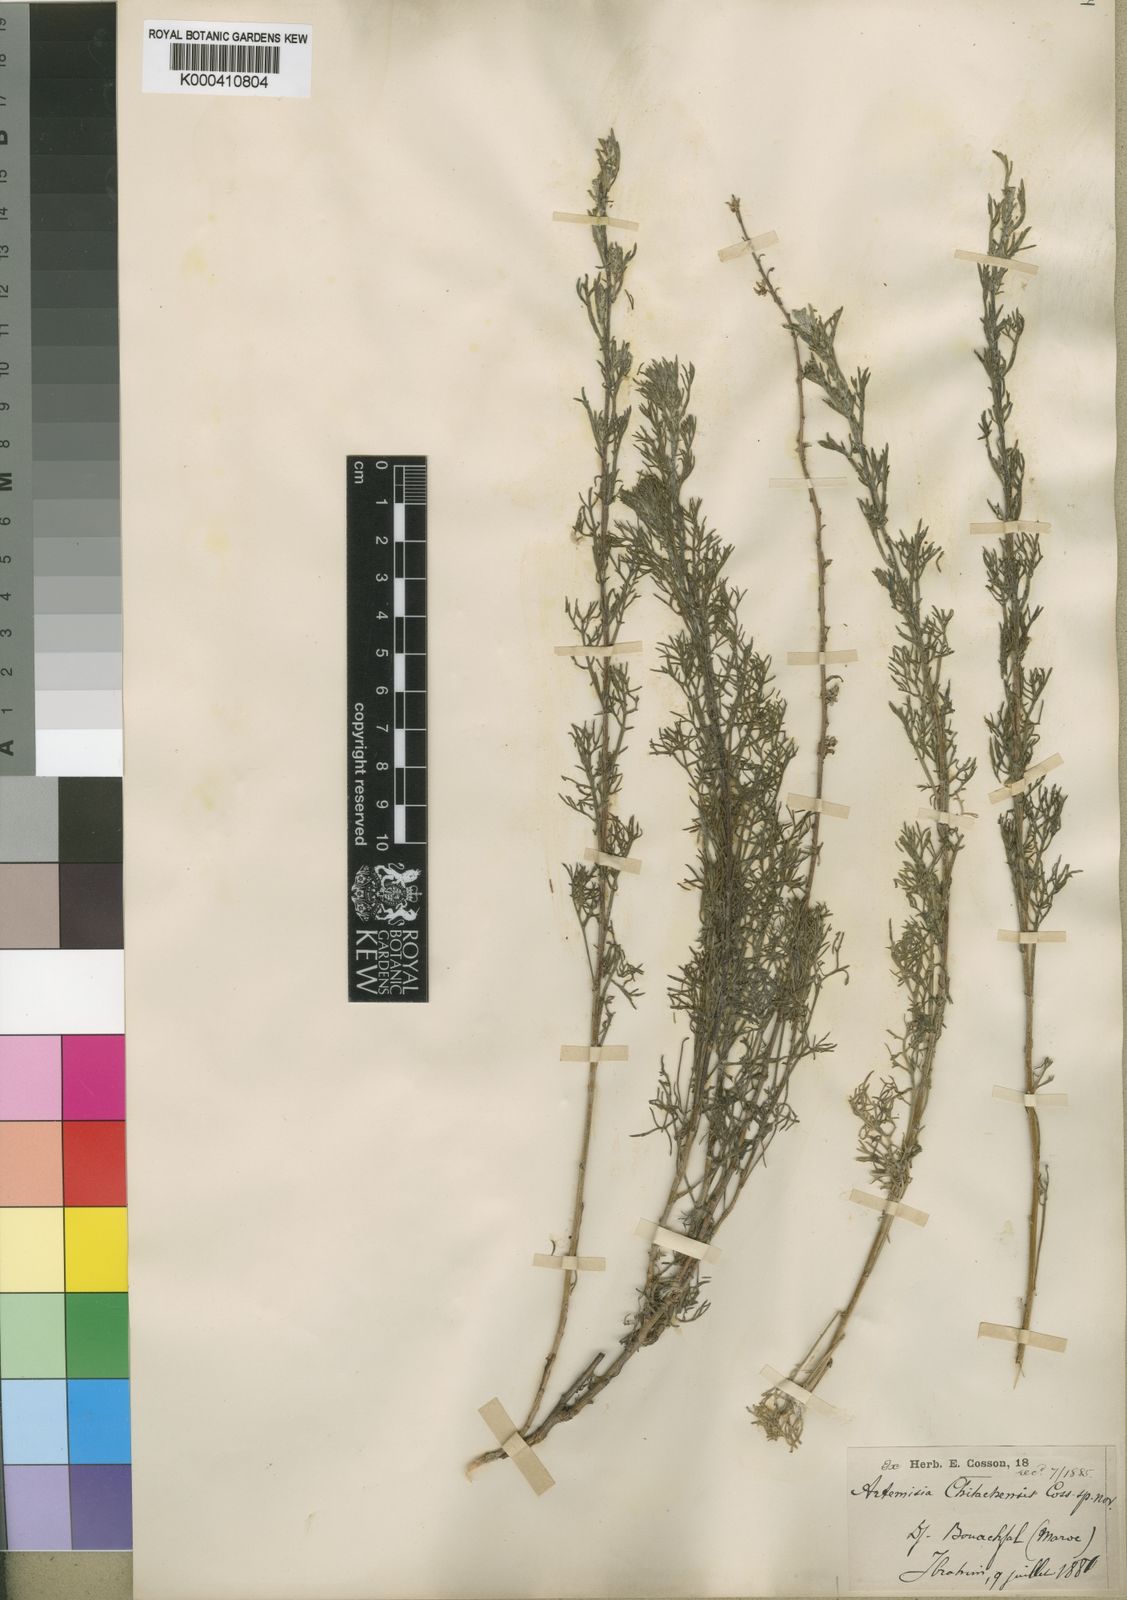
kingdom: Plantae
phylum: Tracheophyta
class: Magnoliopsida
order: Asterales
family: Asteraceae
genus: Artemisia
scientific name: Artemisia alba
